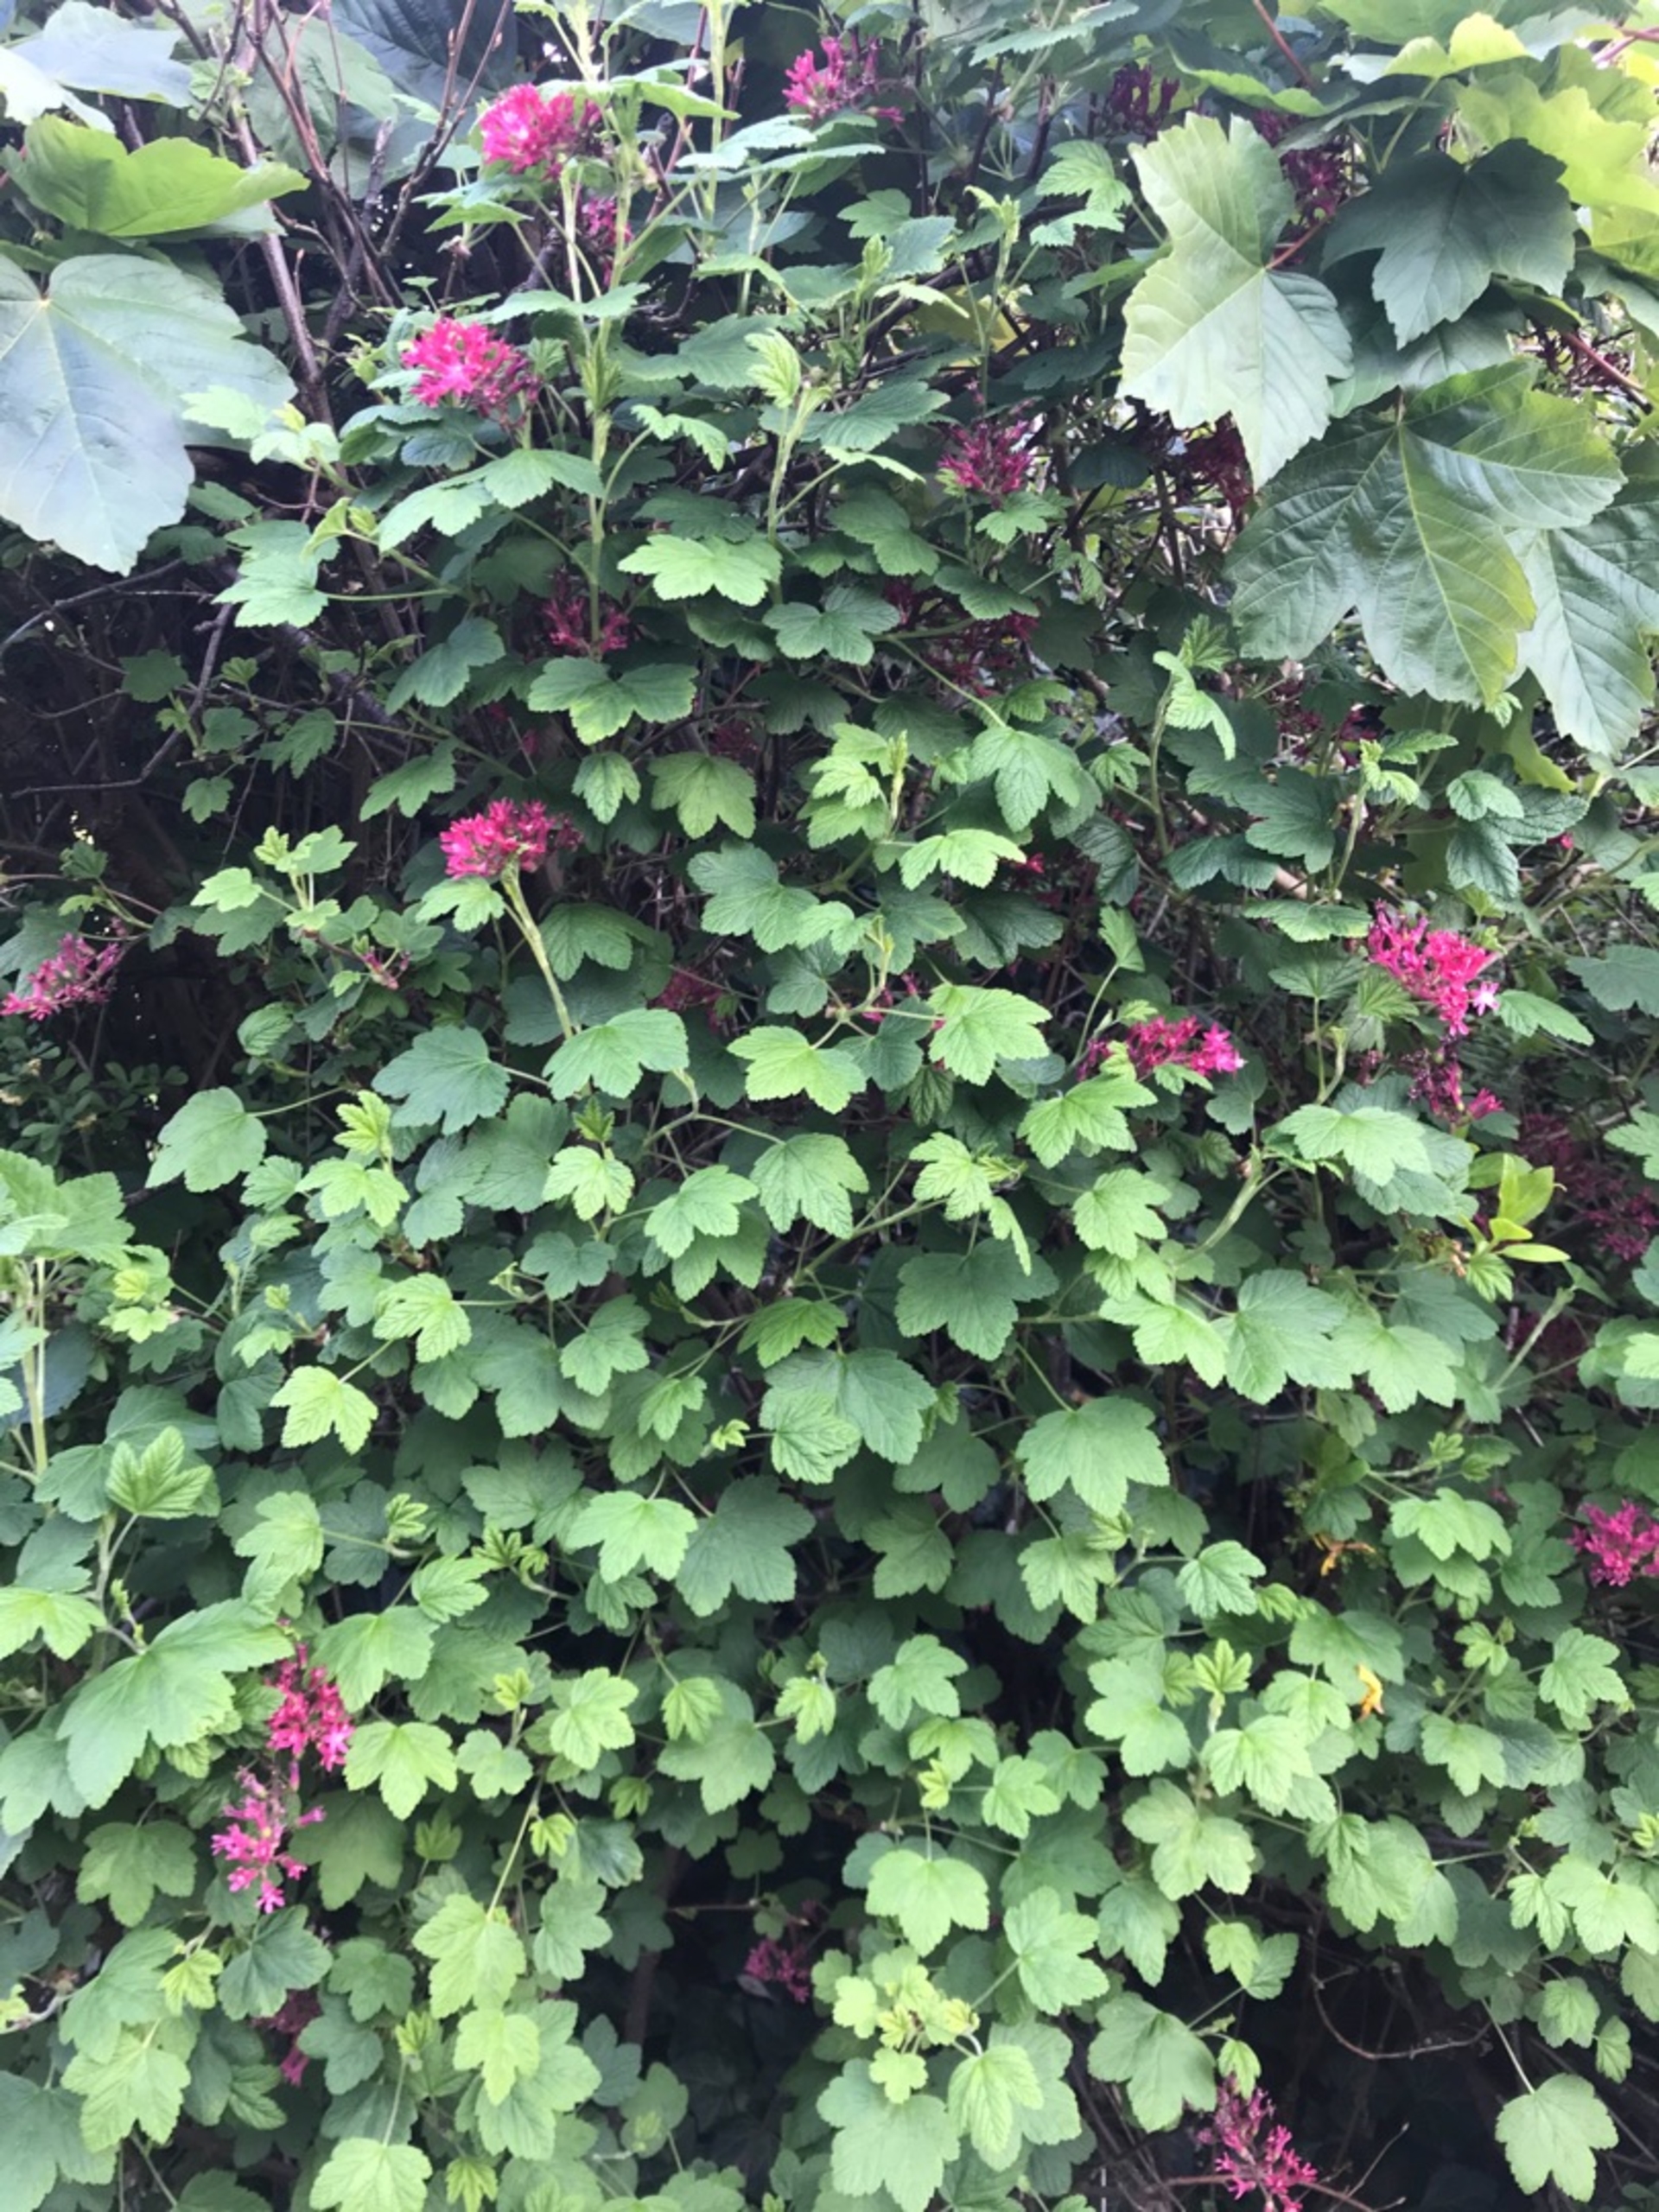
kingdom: Plantae
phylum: Tracheophyta
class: Magnoliopsida
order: Saxifragales
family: Grossulariaceae
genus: Ribes
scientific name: Ribes sanguineum
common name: Blod-ribs
